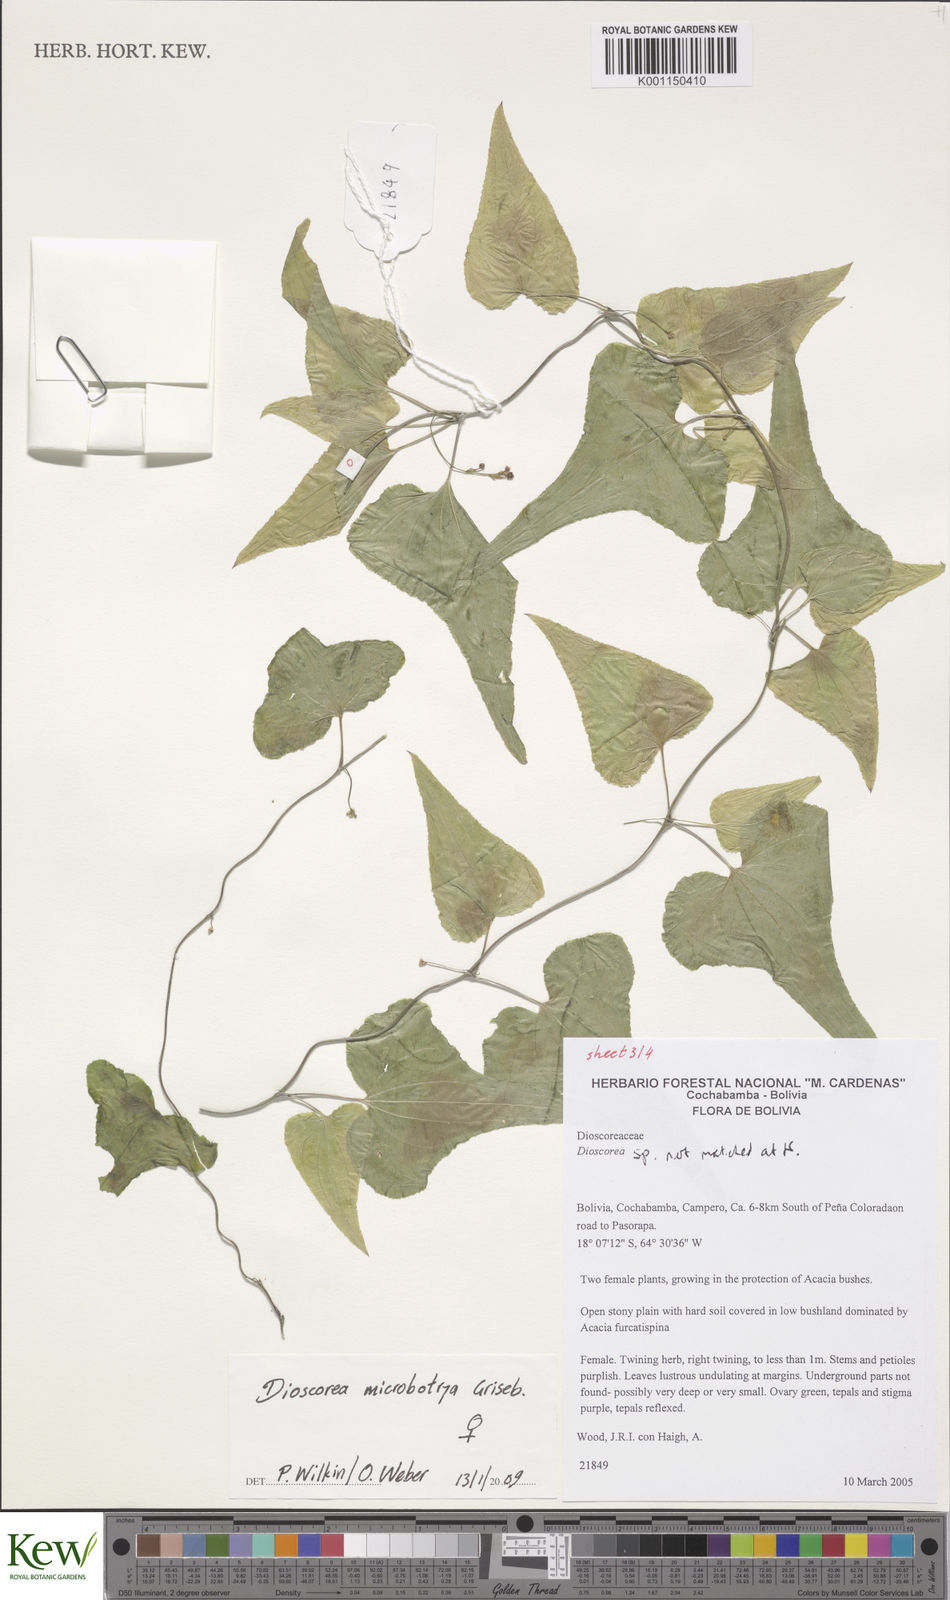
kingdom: Plantae
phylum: Tracheophyta
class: Liliopsida
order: Dioscoreales
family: Dioscoreaceae
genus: Dioscorea
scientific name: Dioscorea microbotrya
